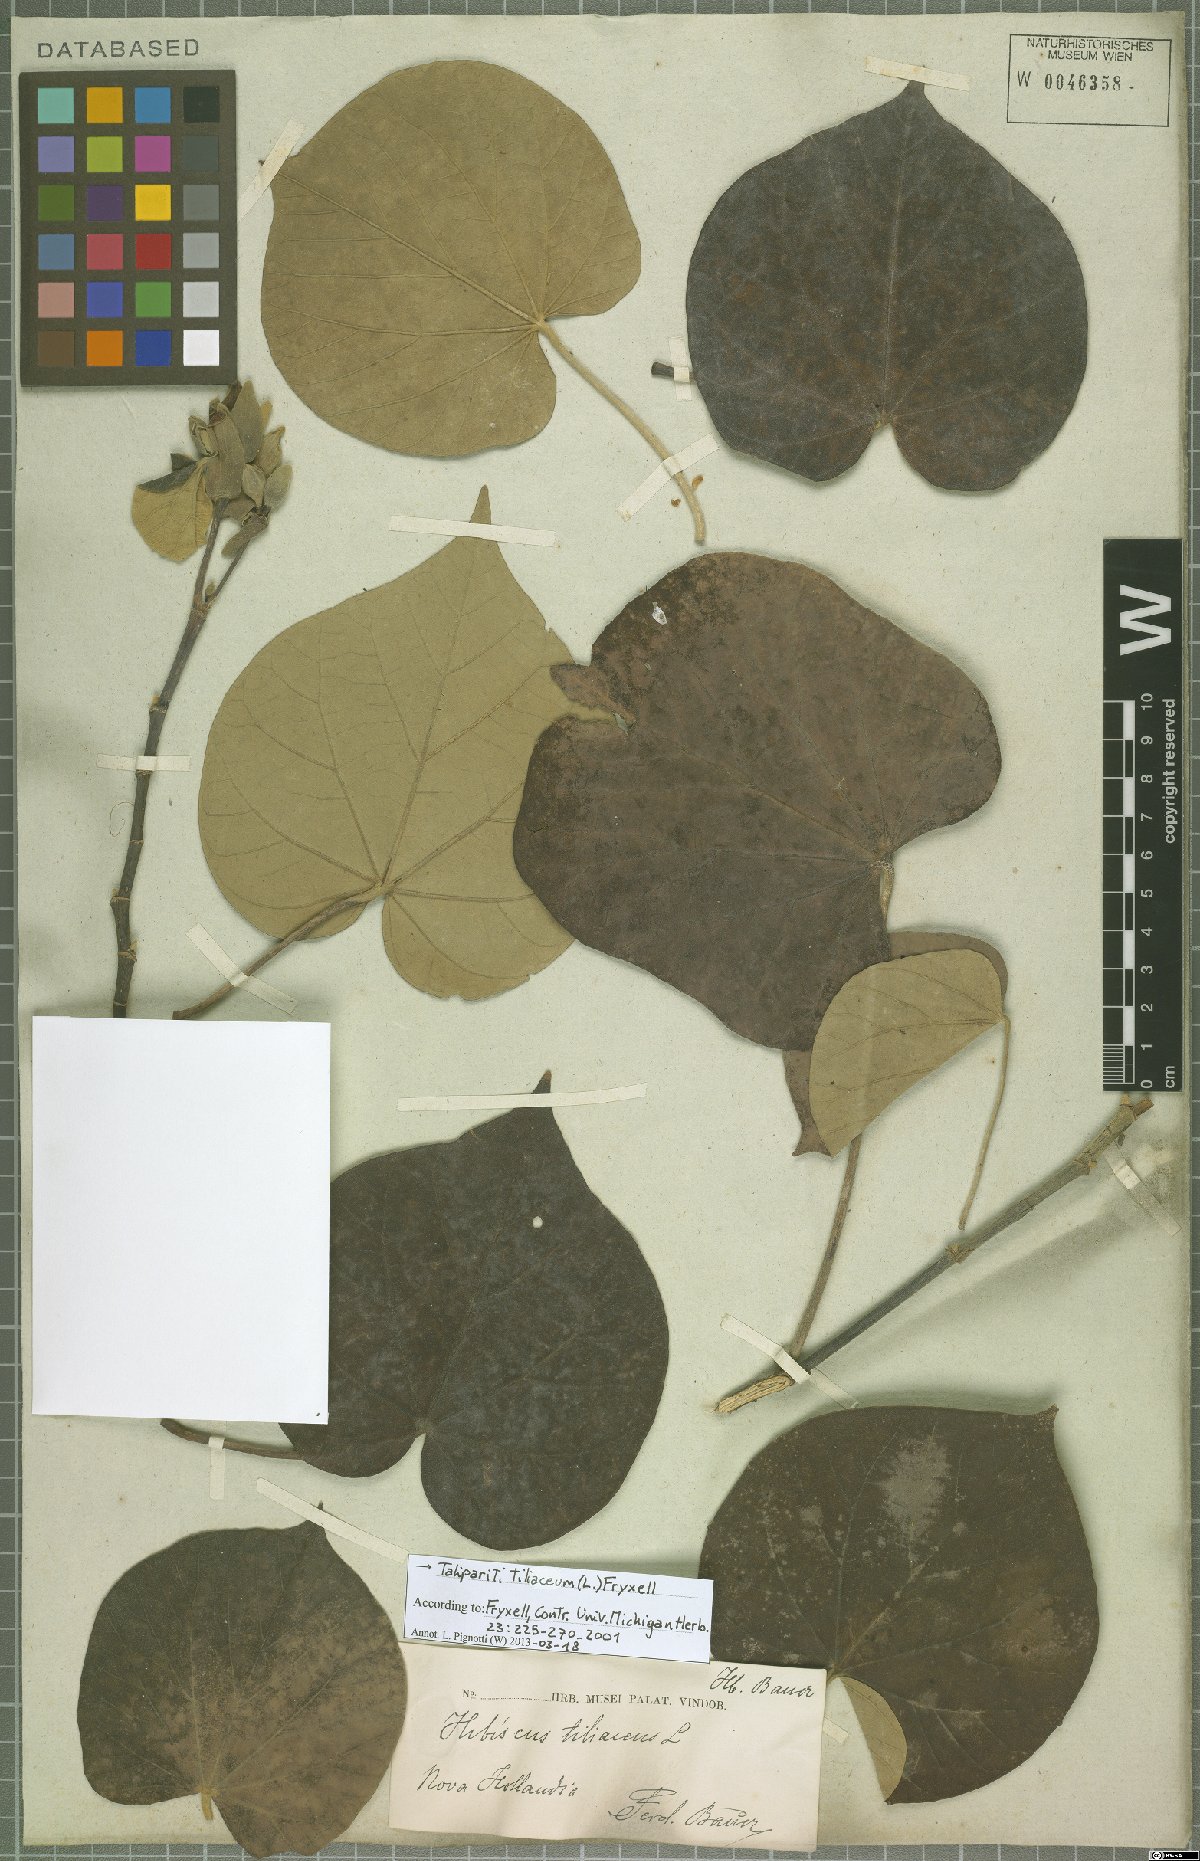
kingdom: Plantae
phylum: Tracheophyta
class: Magnoliopsida
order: Malvales
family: Malvaceae
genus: Talipariti
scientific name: Talipariti tiliaceum
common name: Sea hibiscus
